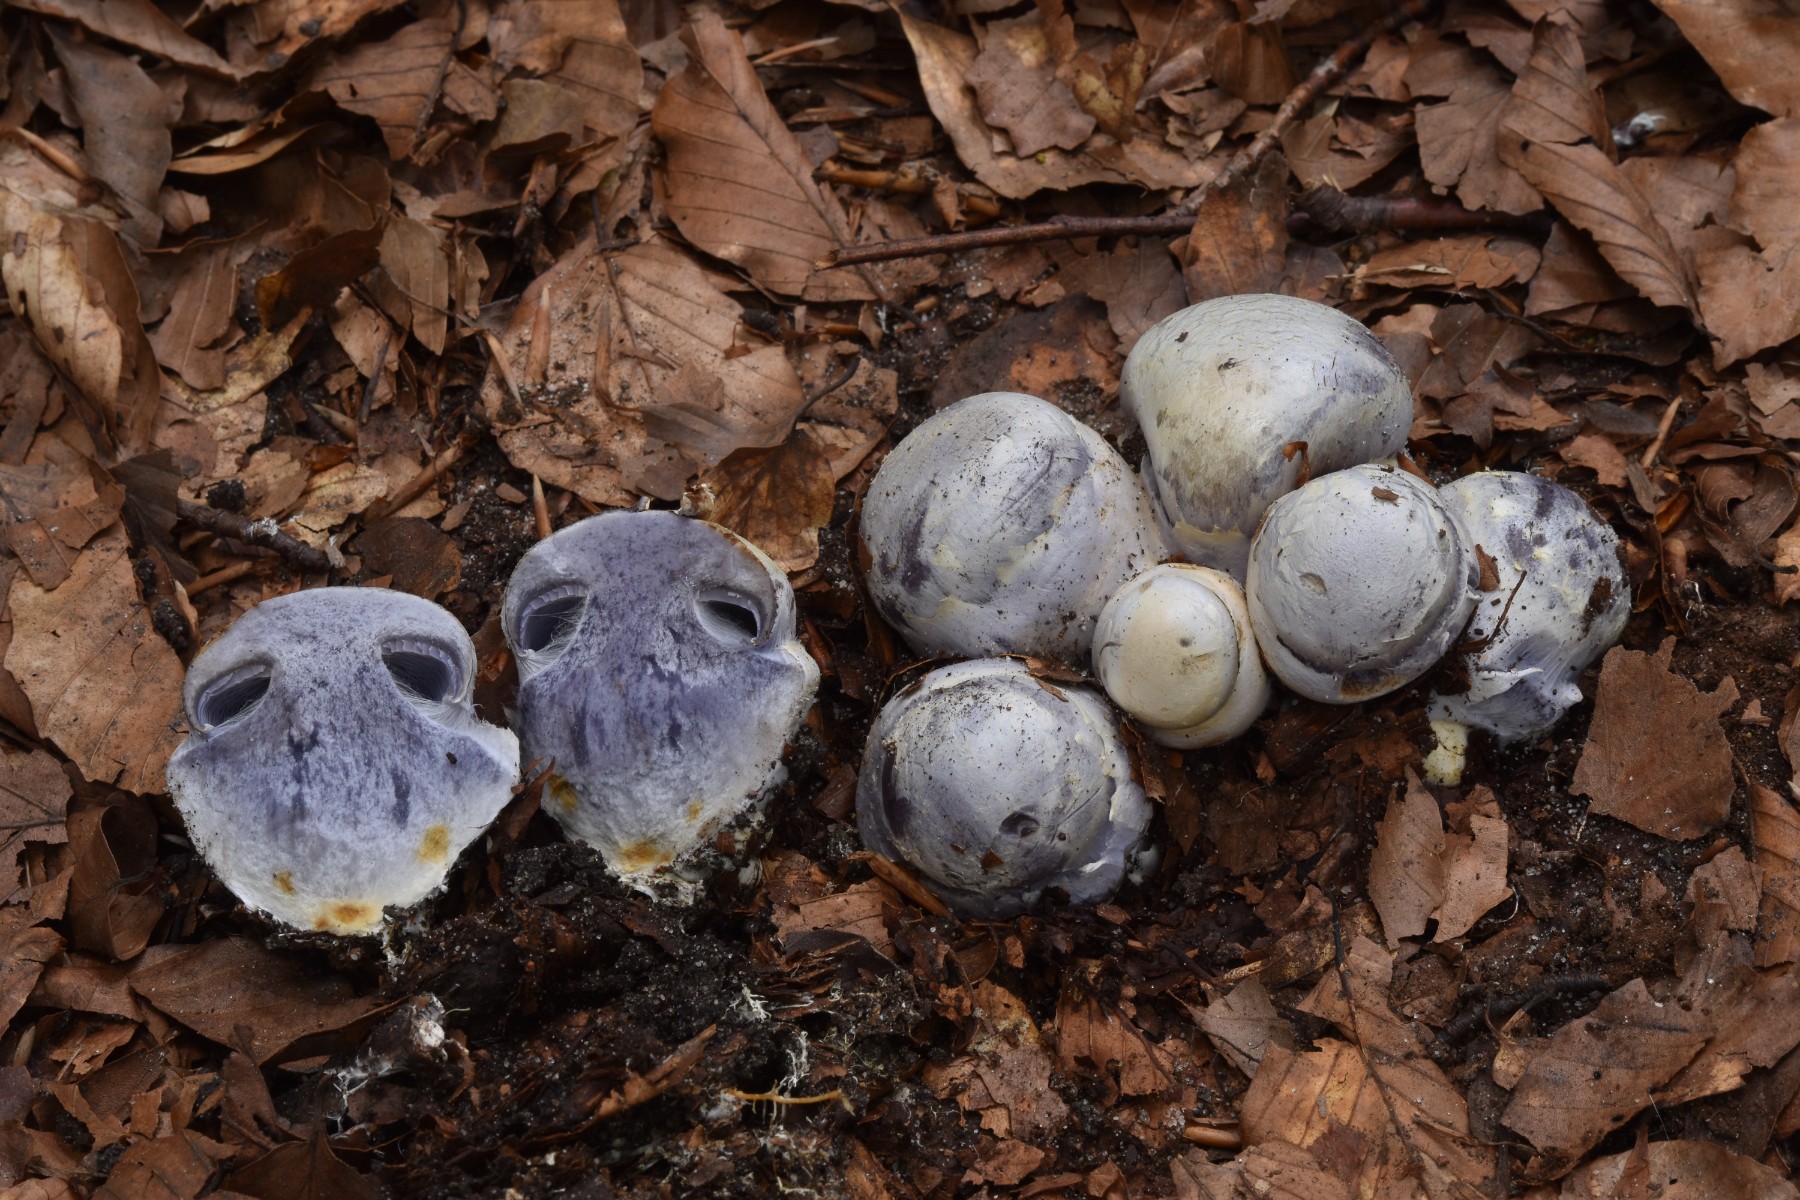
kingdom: Fungi
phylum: Basidiomycota
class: Agaricomycetes
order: Agaricales
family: Cortinariaceae
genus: Cortinarius
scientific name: Cortinarius caerulescens
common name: blåkødet slørhat
